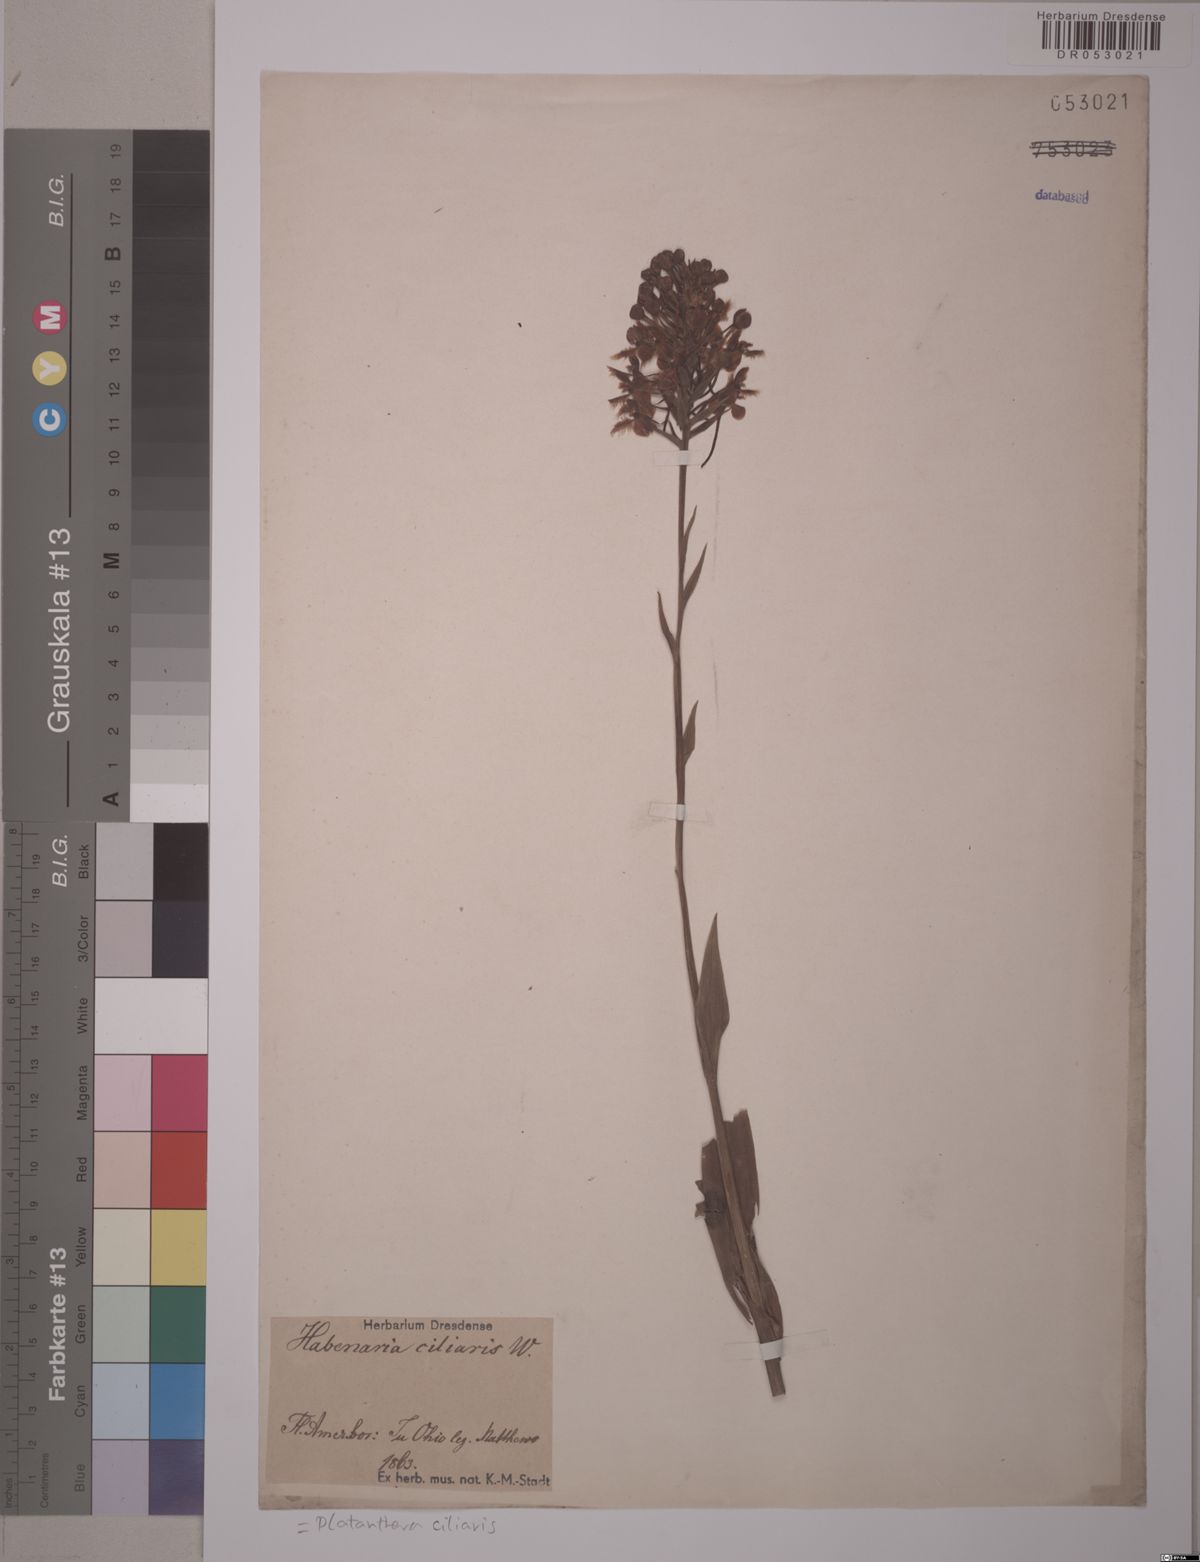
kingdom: Plantae
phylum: Tracheophyta
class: Liliopsida
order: Asparagales
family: Orchidaceae
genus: Platanthera
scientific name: Platanthera ciliaris
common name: Yellow fringed orchid
